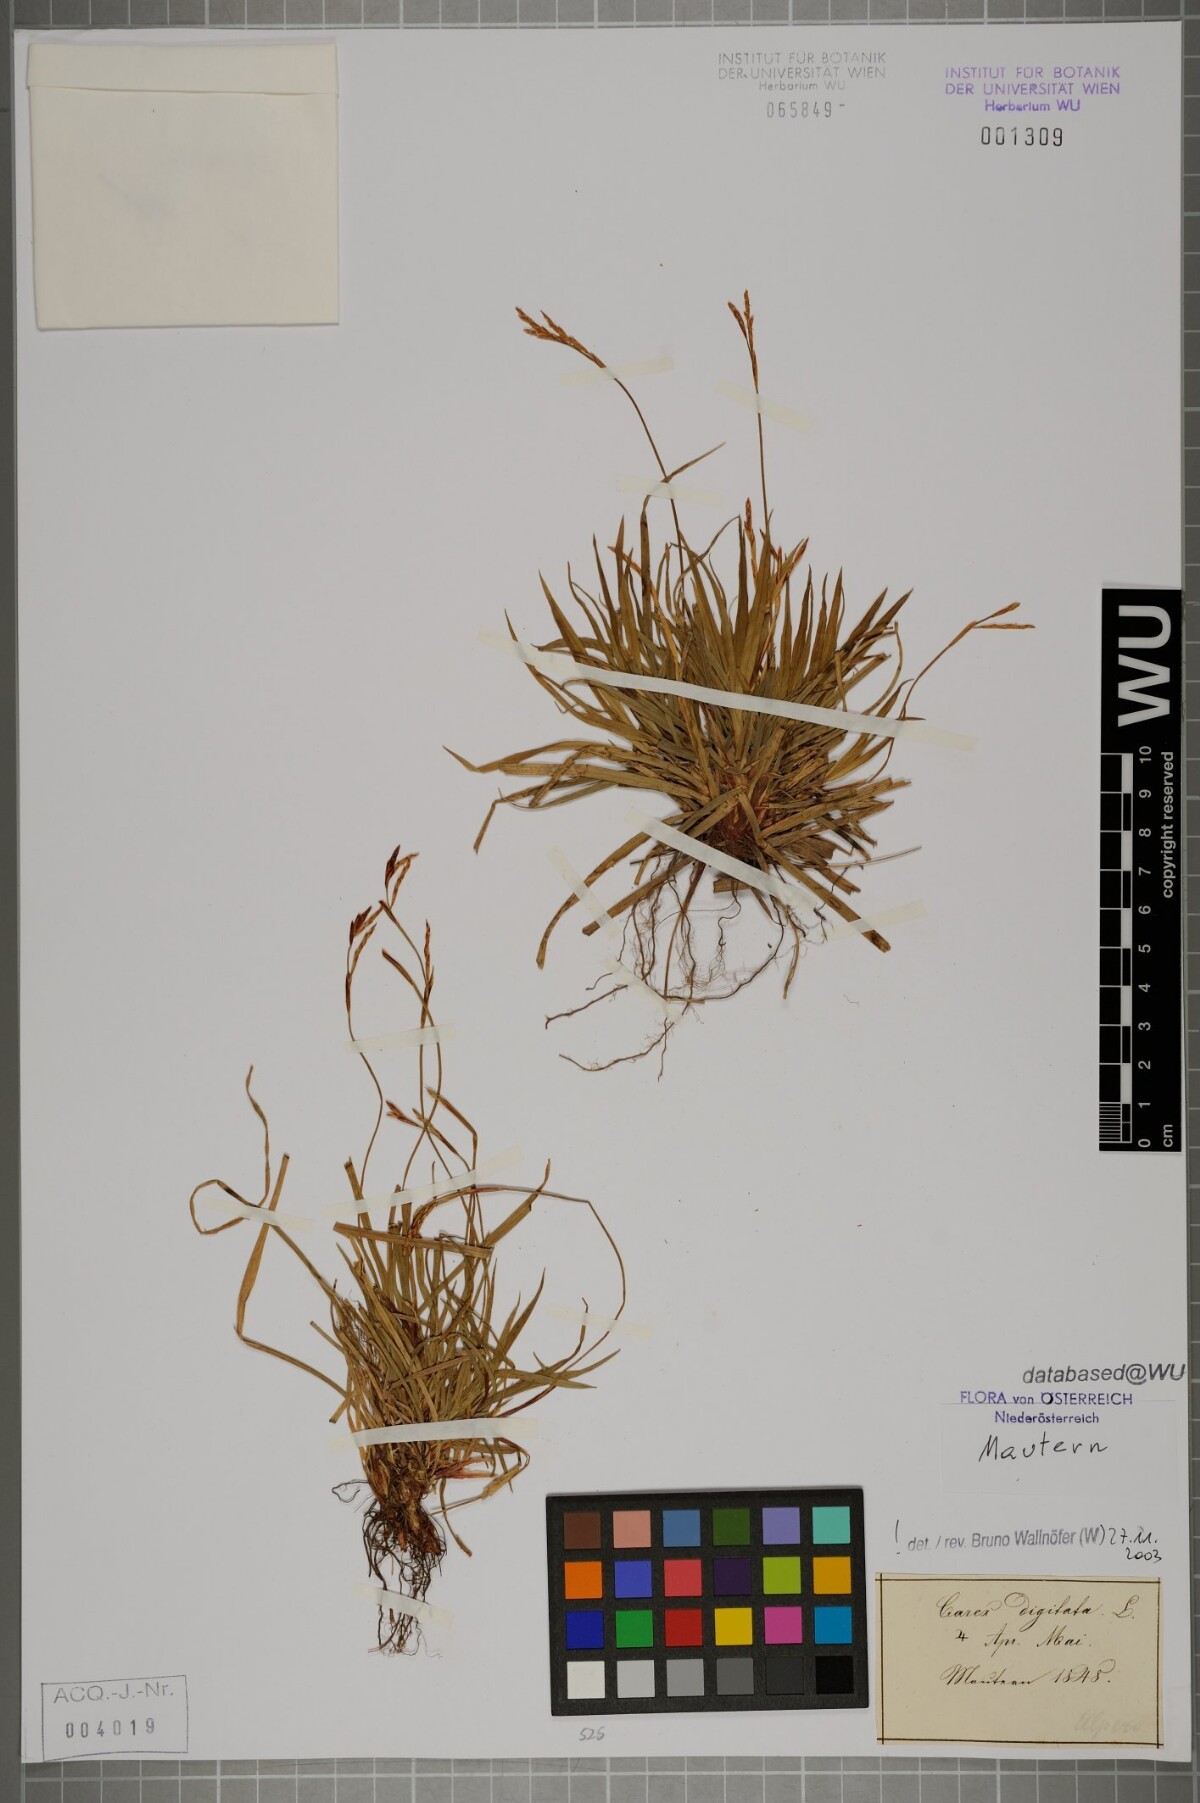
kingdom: Plantae
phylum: Tracheophyta
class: Liliopsida
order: Poales
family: Cyperaceae
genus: Carex
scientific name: Carex digitata
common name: Fingered sedge
